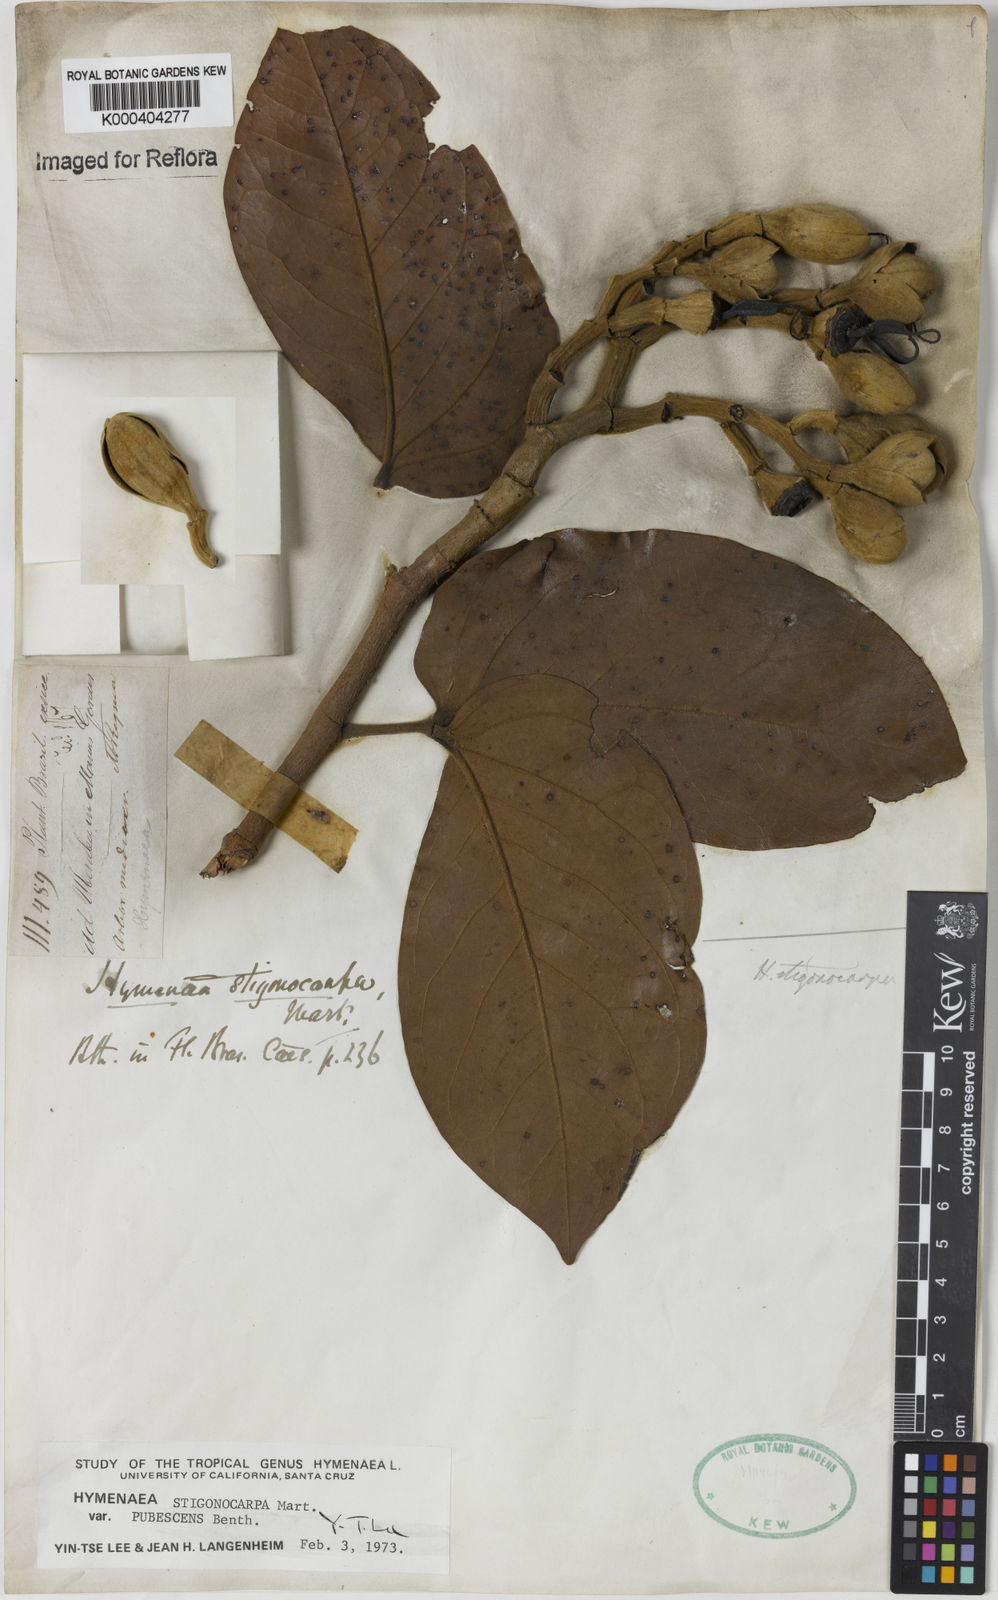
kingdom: Plantae
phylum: Tracheophyta
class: Magnoliopsida
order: Fabales
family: Fabaceae
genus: Hymenaea
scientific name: Hymenaea stigonocarpa
